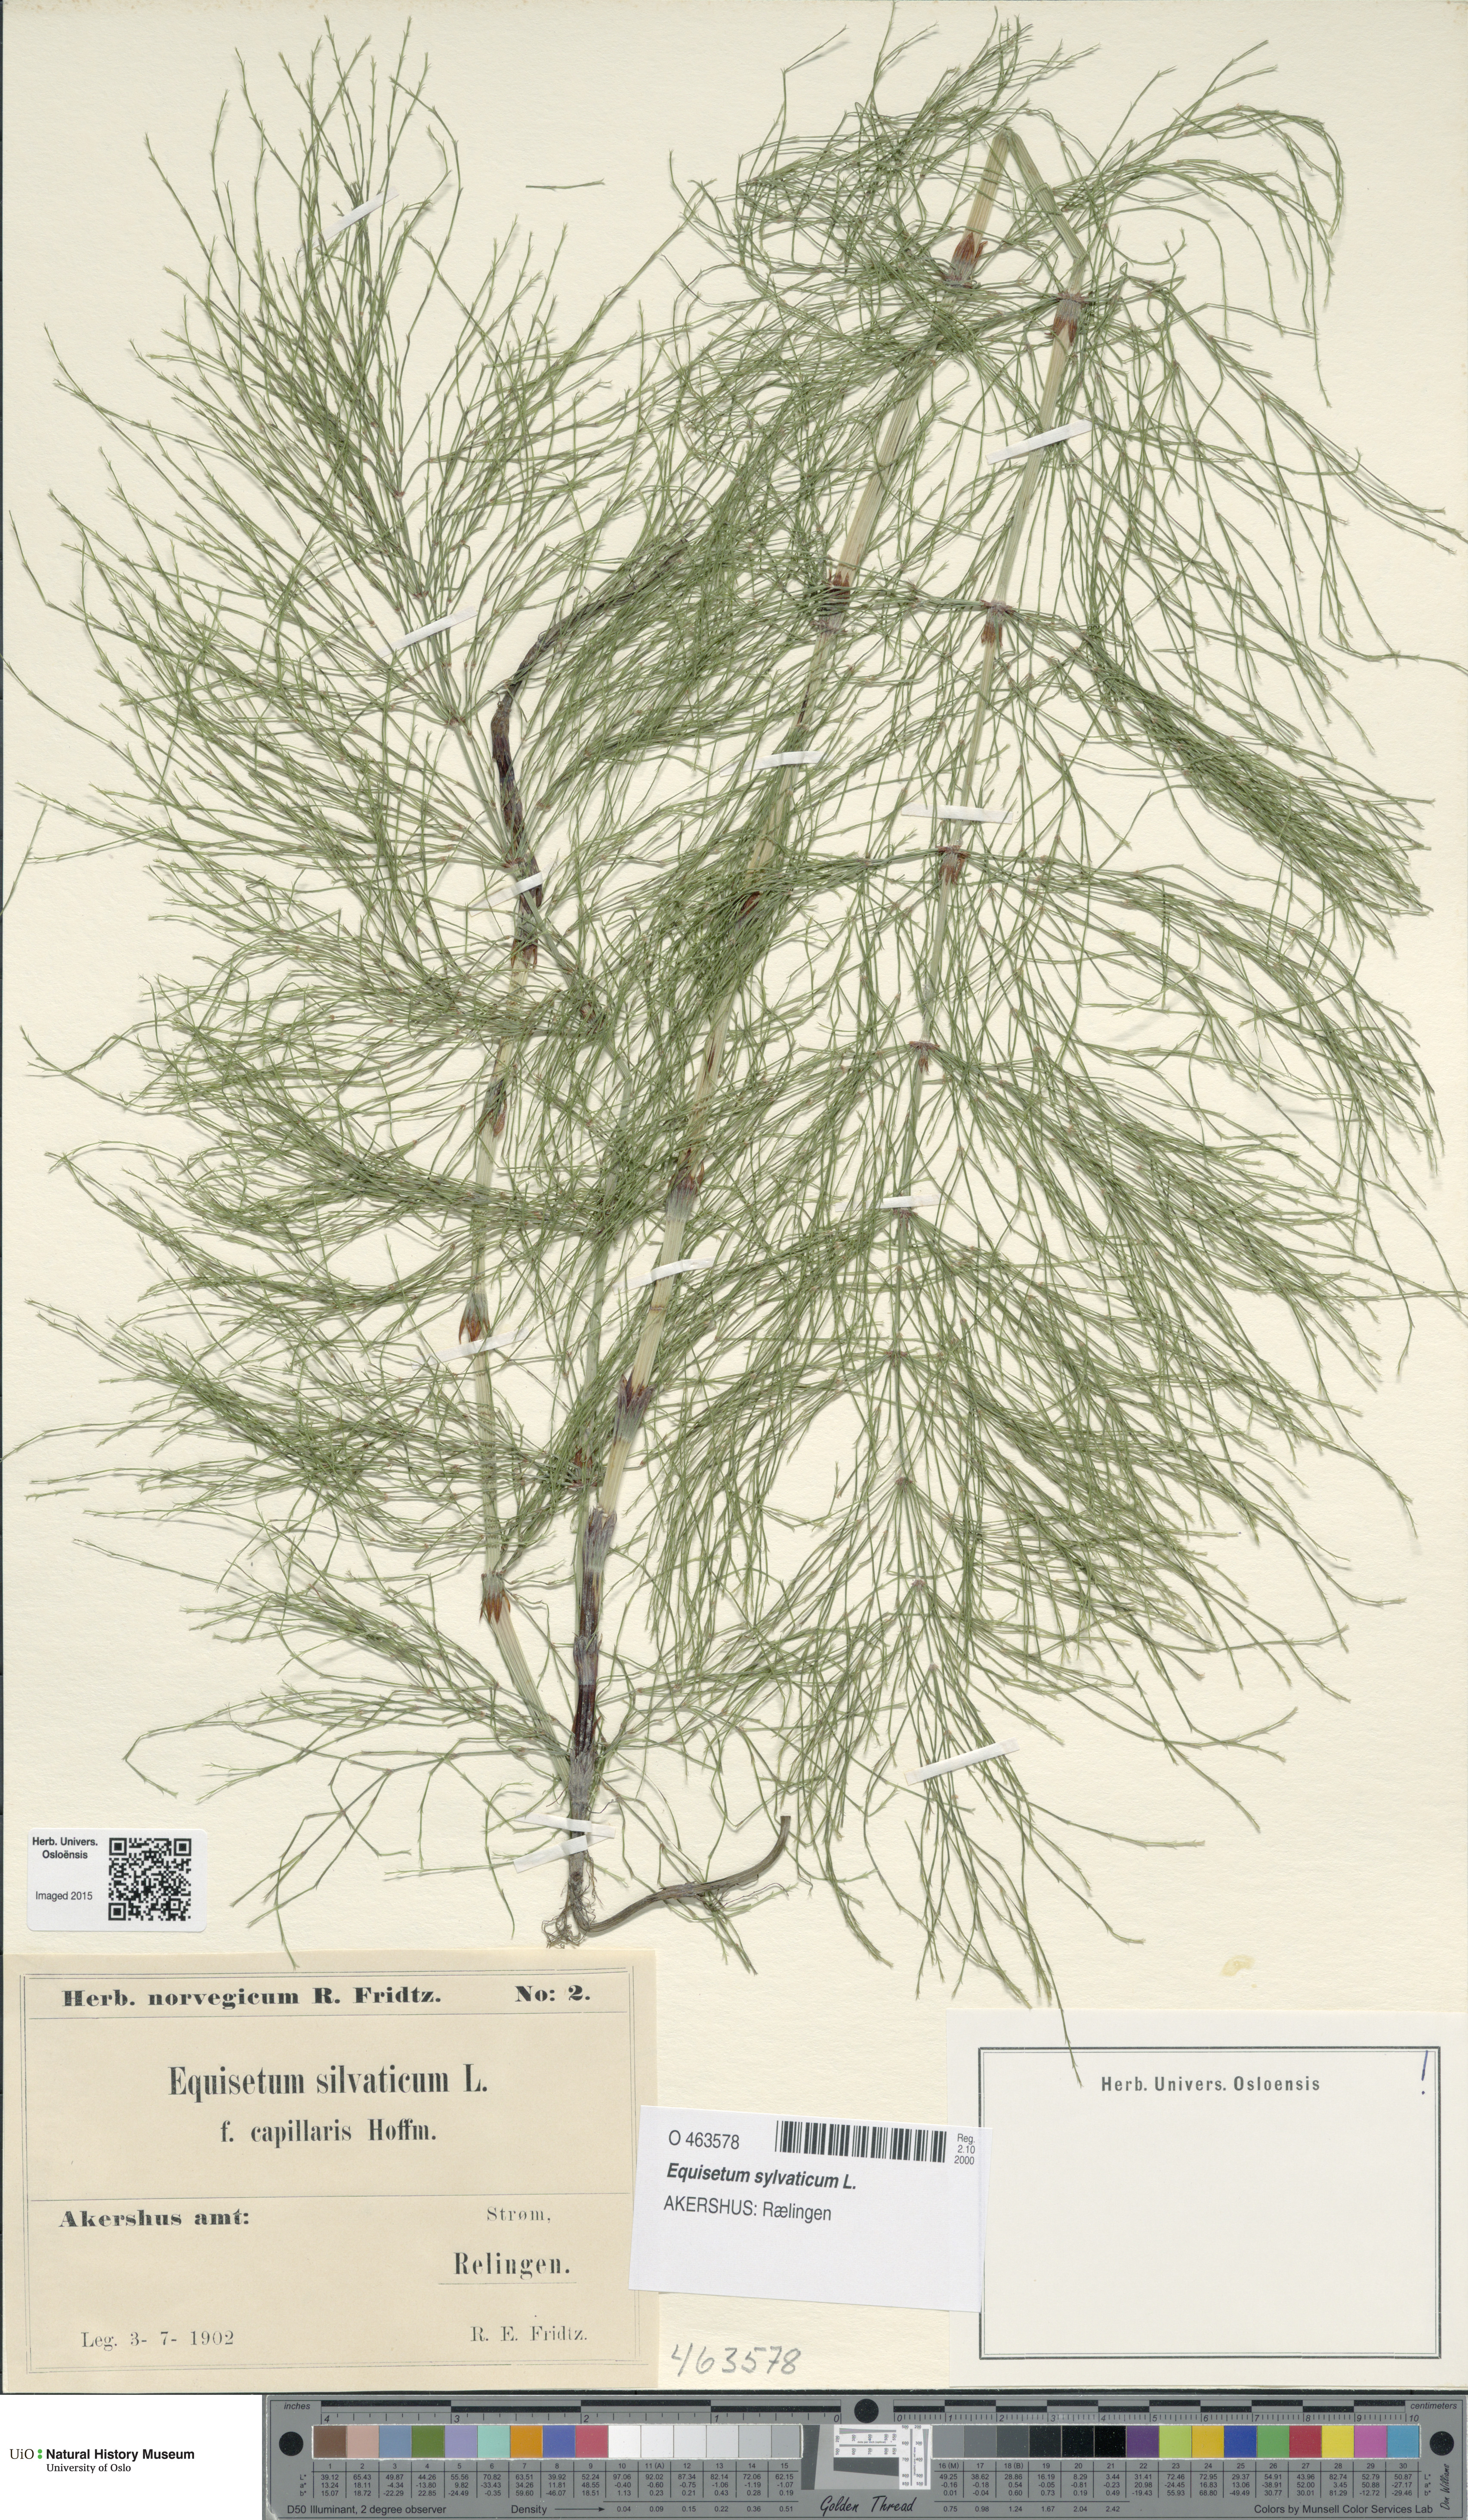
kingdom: Plantae
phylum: Tracheophyta
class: Polypodiopsida
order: Equisetales
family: Equisetaceae
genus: Equisetum
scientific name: Equisetum sylvaticum
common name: Wood horsetail
